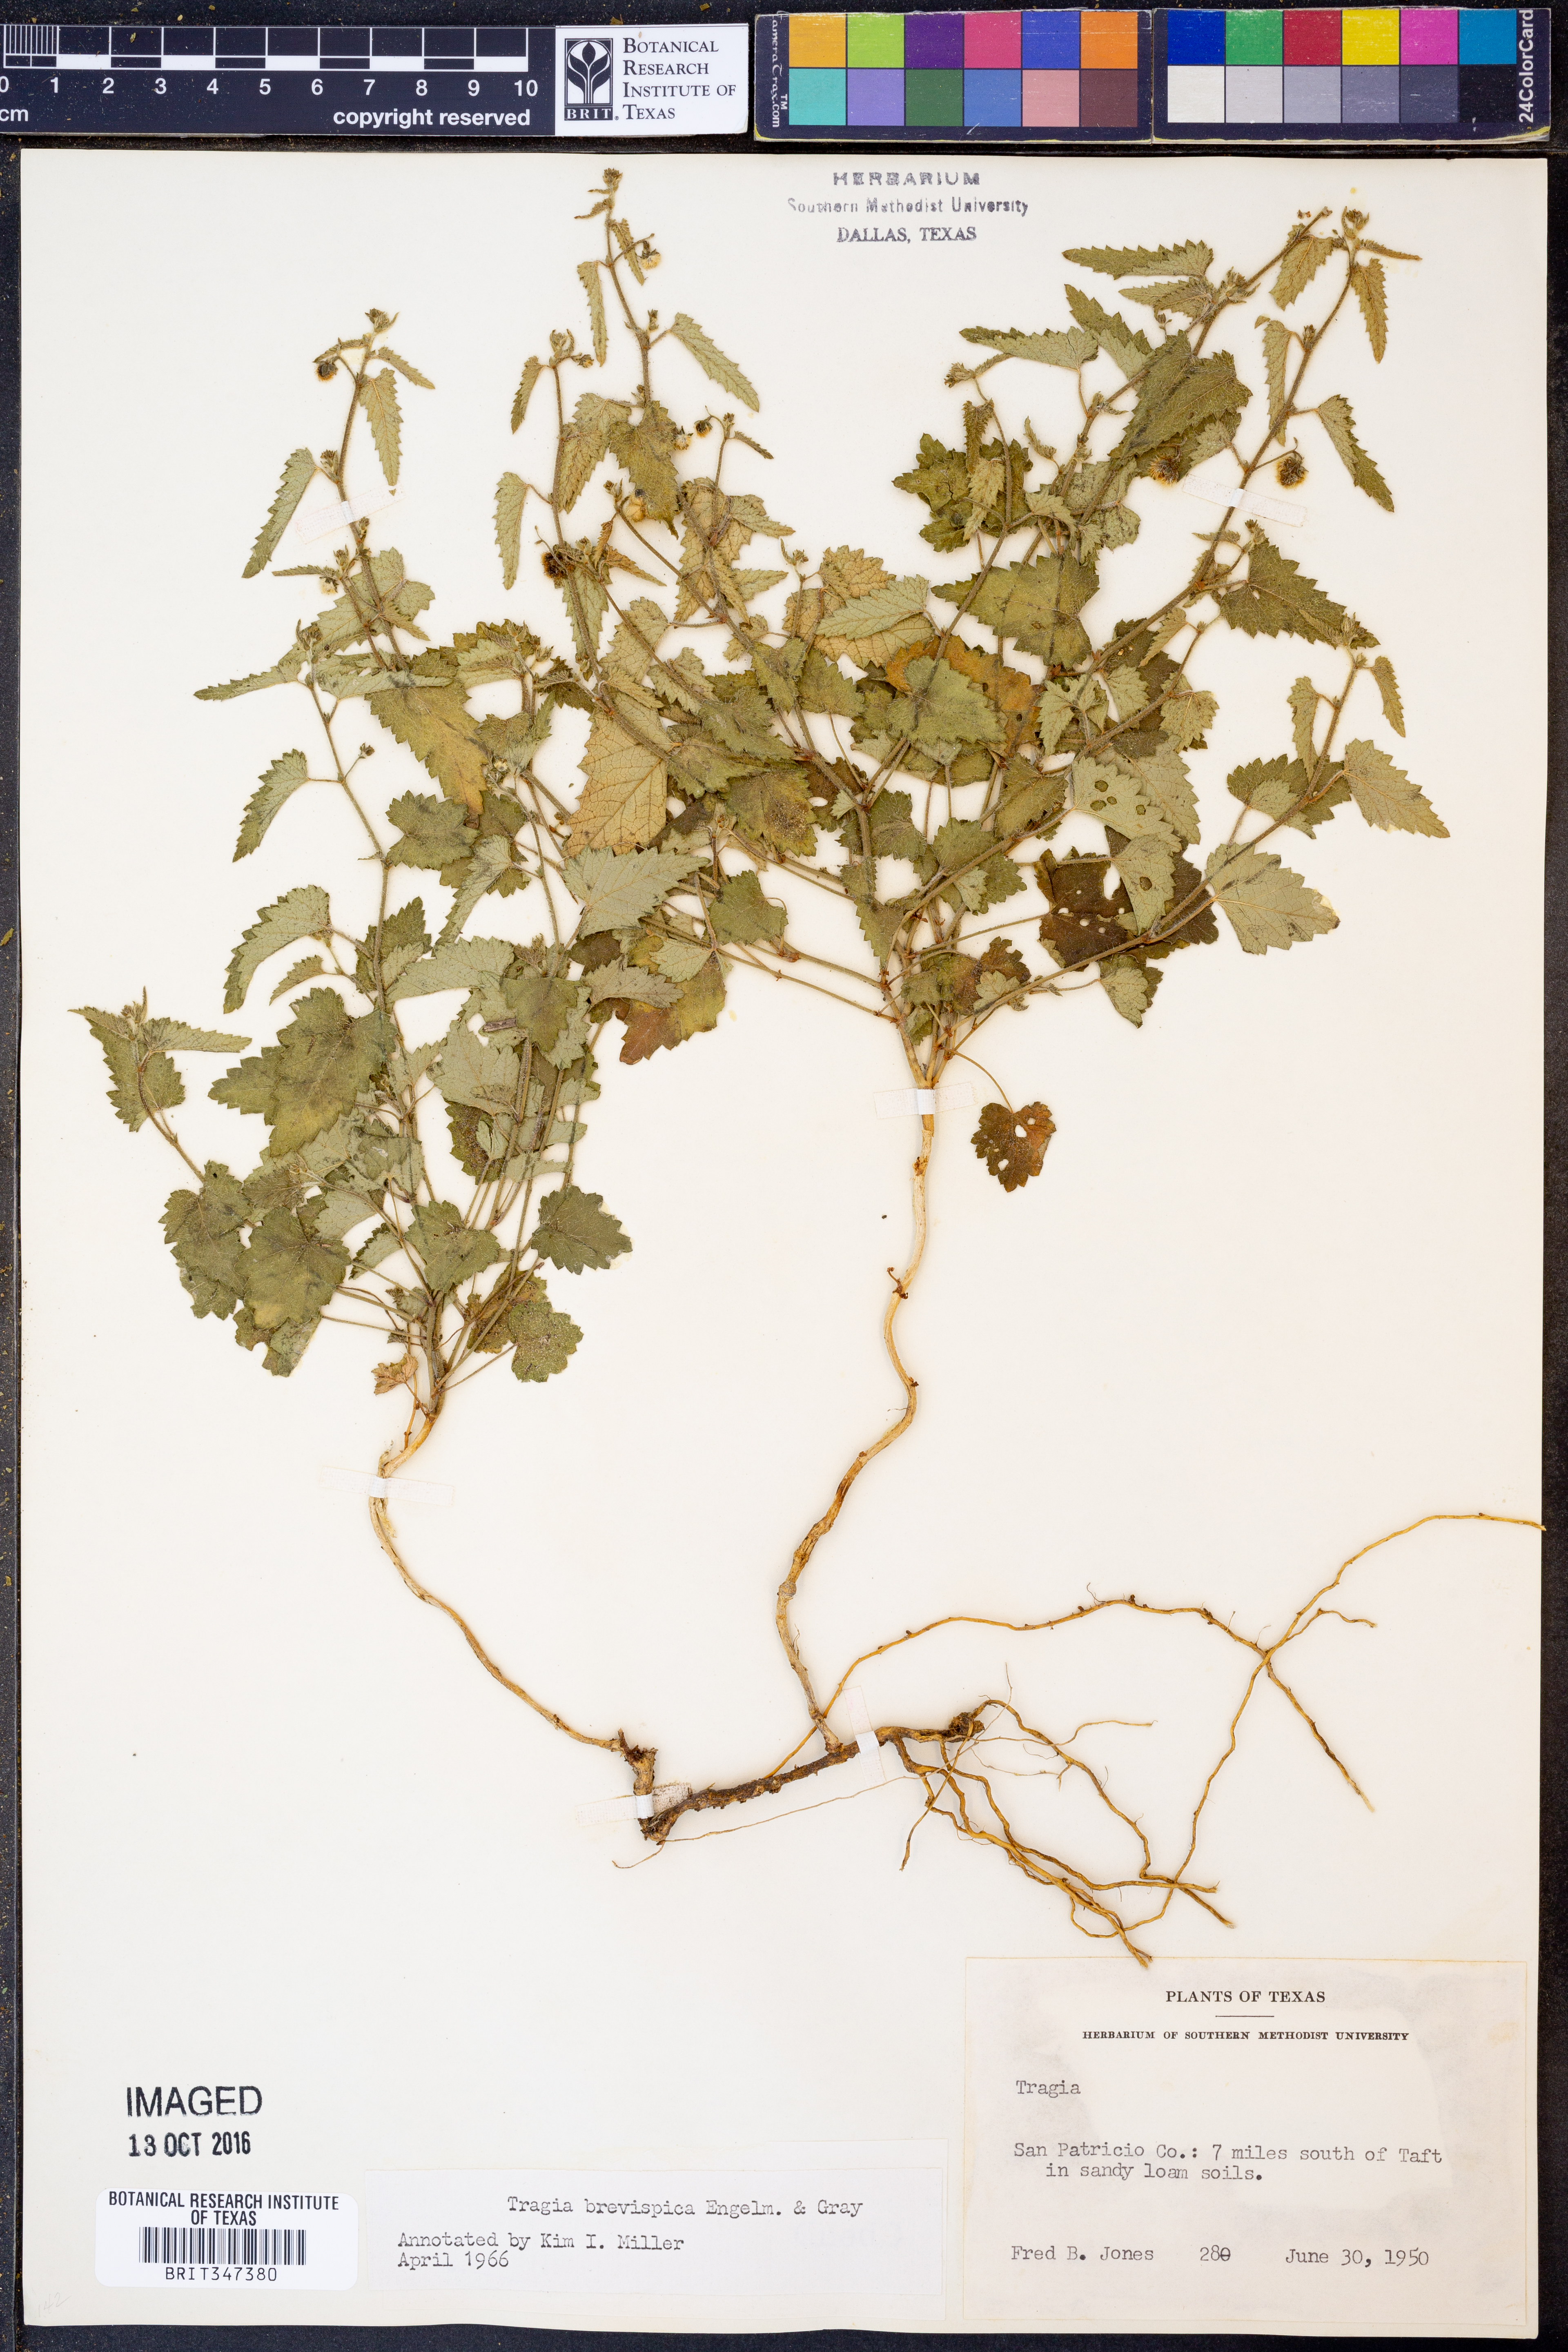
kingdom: Plantae
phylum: Tracheophyta
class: Magnoliopsida
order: Malpighiales
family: Euphorbiaceae
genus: Tragia
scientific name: Tragia brevispica
